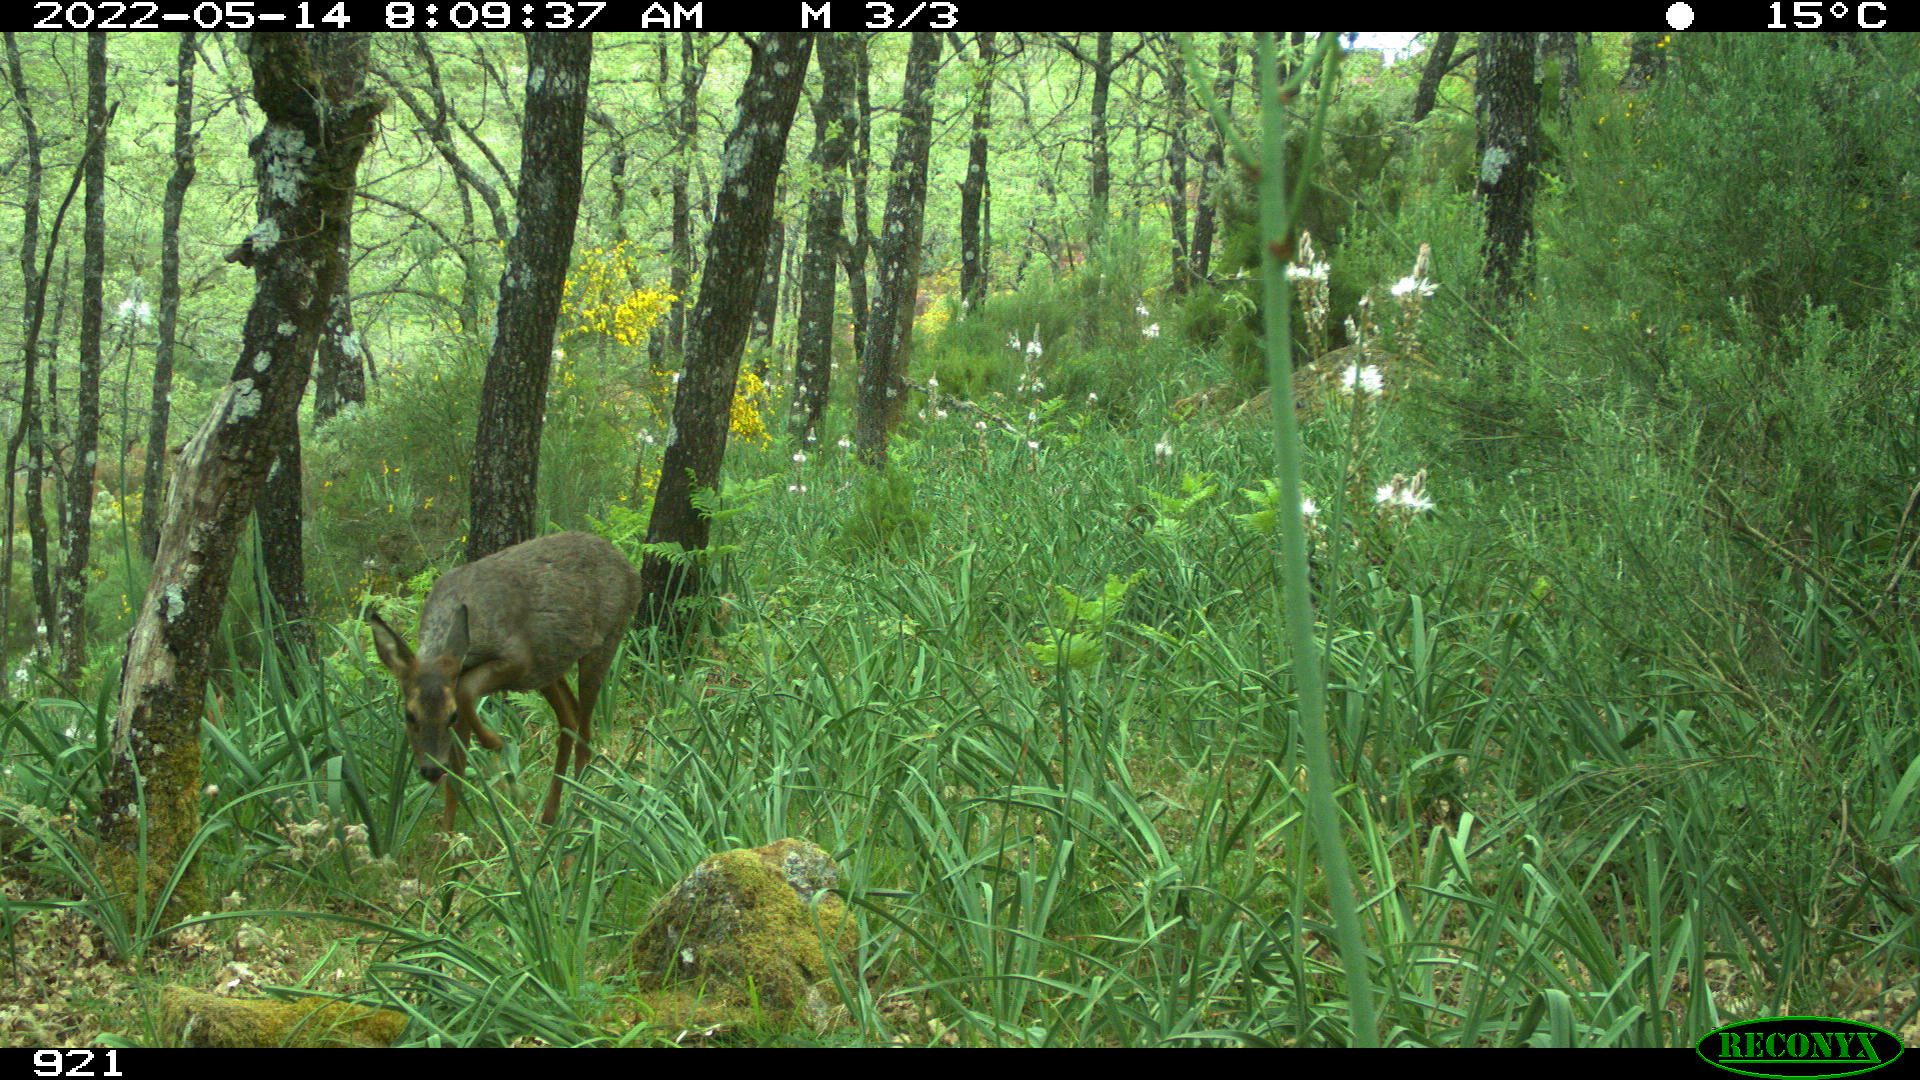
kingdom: Animalia
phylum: Chordata
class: Mammalia
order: Artiodactyla
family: Cervidae
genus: Capreolus
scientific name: Capreolus capreolus
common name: Western roe deer
